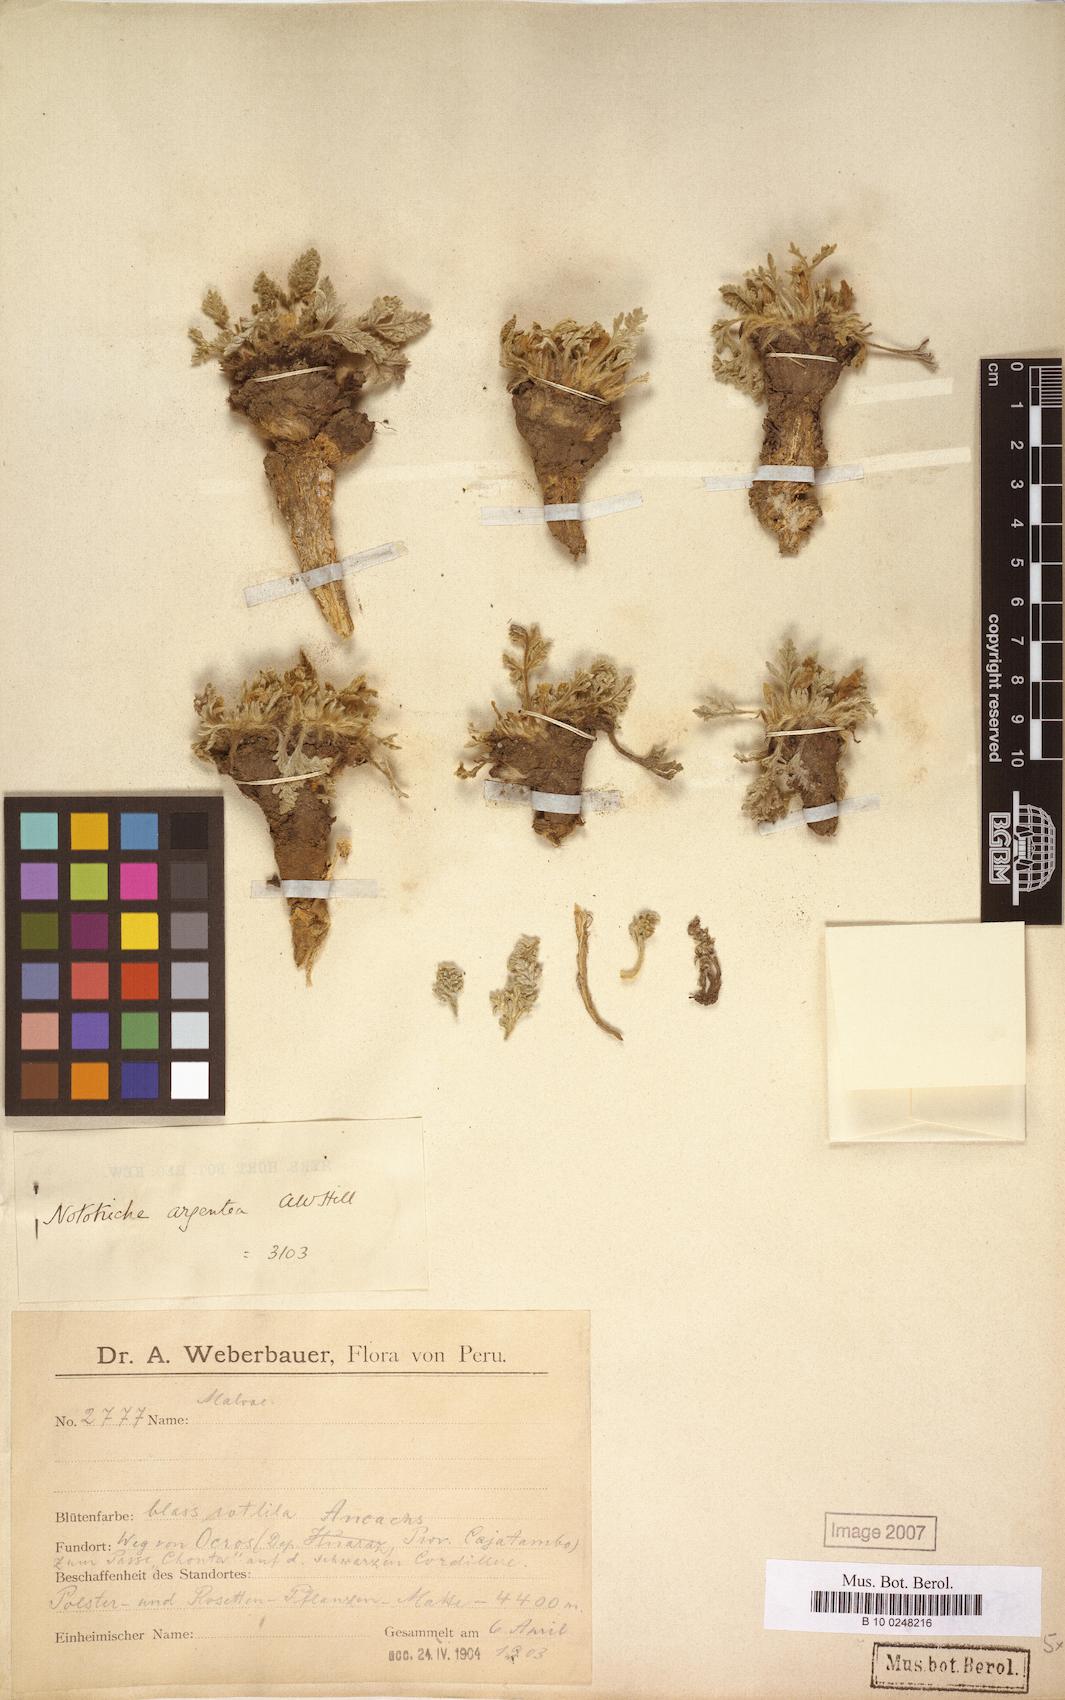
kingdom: Plantae
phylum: Tracheophyta
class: Magnoliopsida
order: Malvales
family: Malvaceae
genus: Nototriche
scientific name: Nototriche argentea
